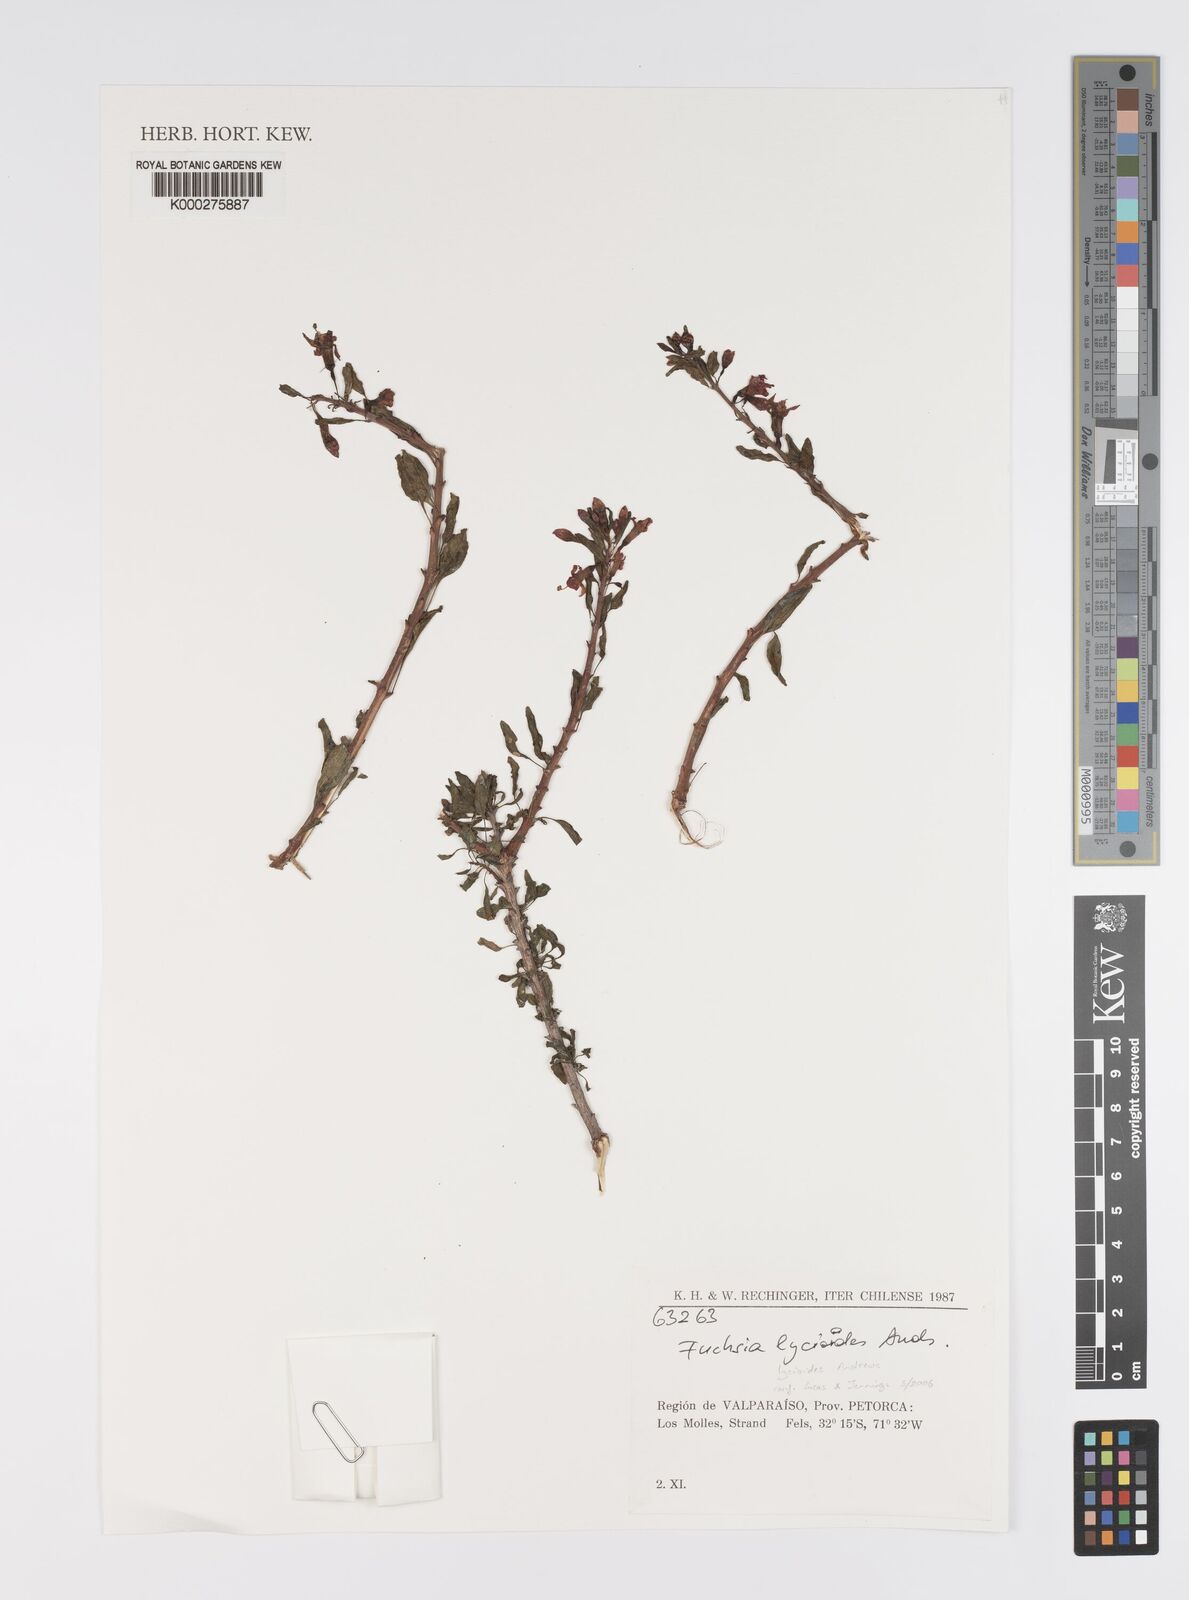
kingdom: Plantae
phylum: Tracheophyta
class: Magnoliopsida
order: Myrtales
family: Onagraceae
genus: Fuchsia
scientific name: Fuchsia lycioides
